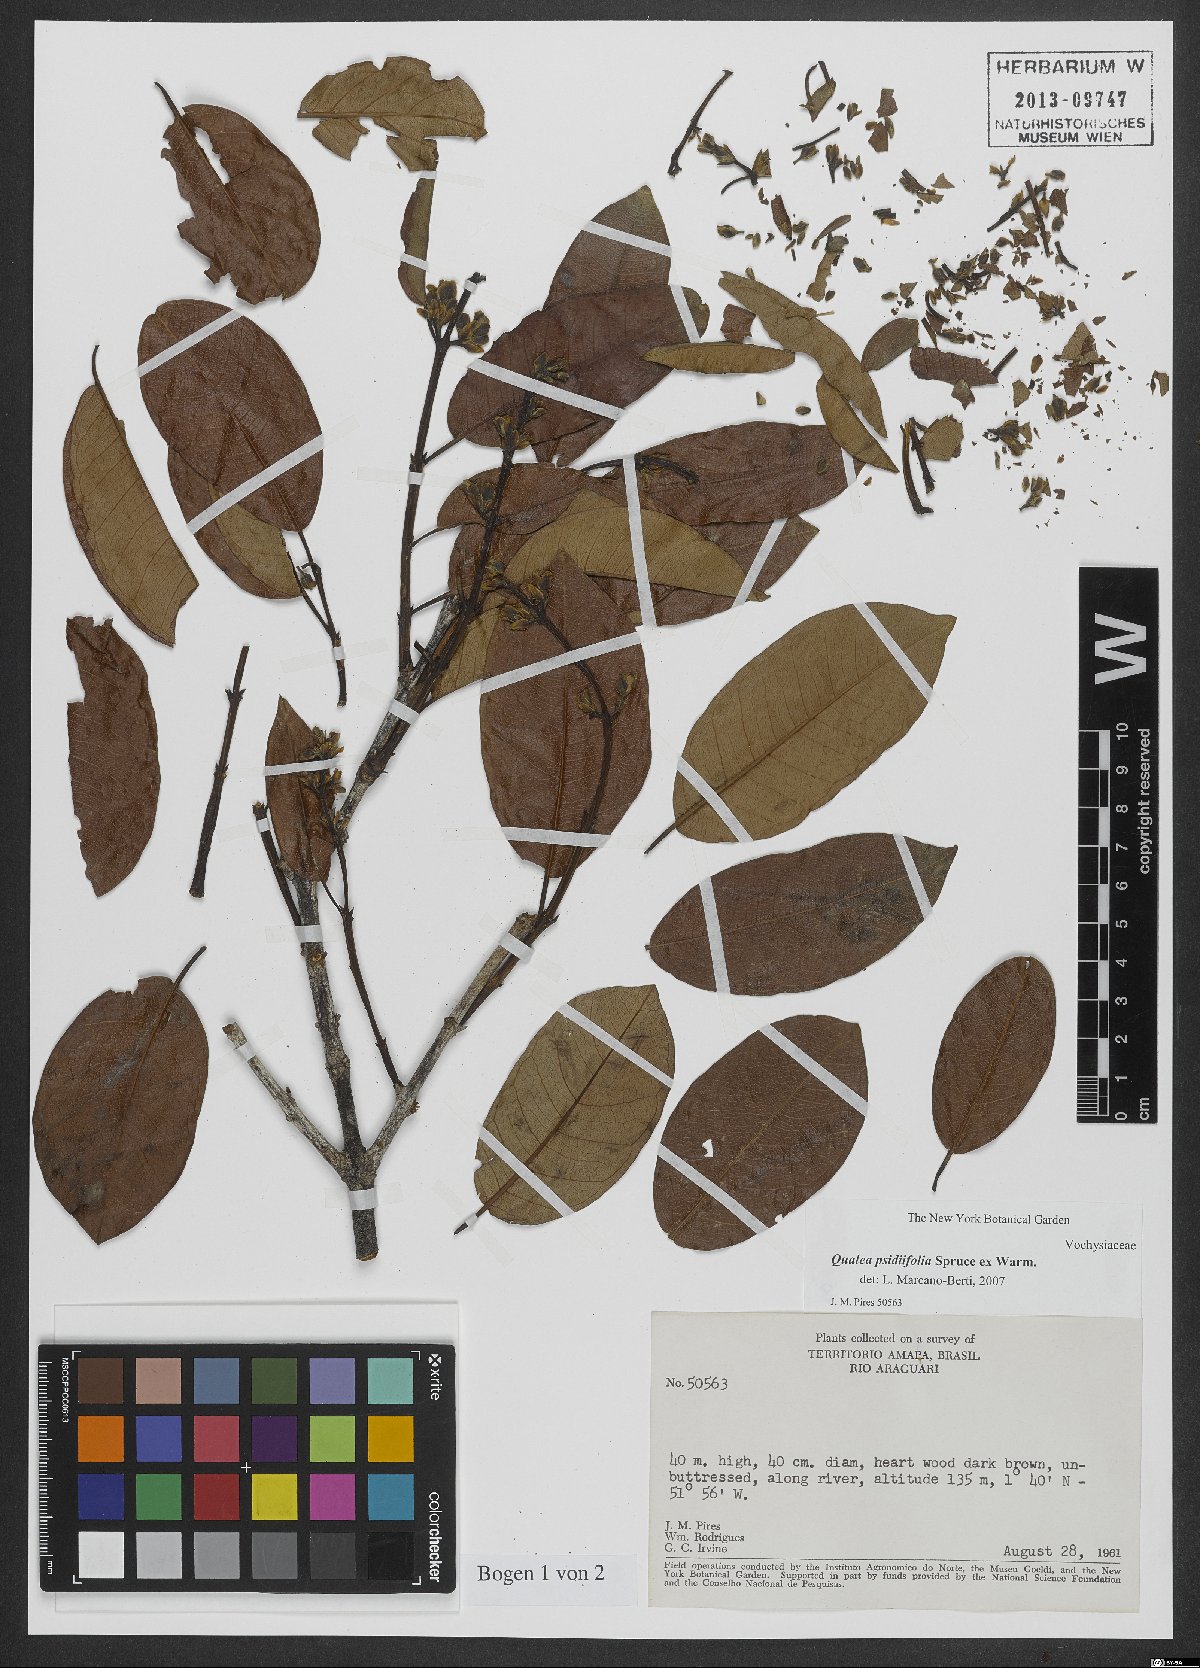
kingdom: Plantae
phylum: Tracheophyta
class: Magnoliopsida
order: Myrtales
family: Vochysiaceae
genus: Qualea
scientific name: Qualea psidiifolia
